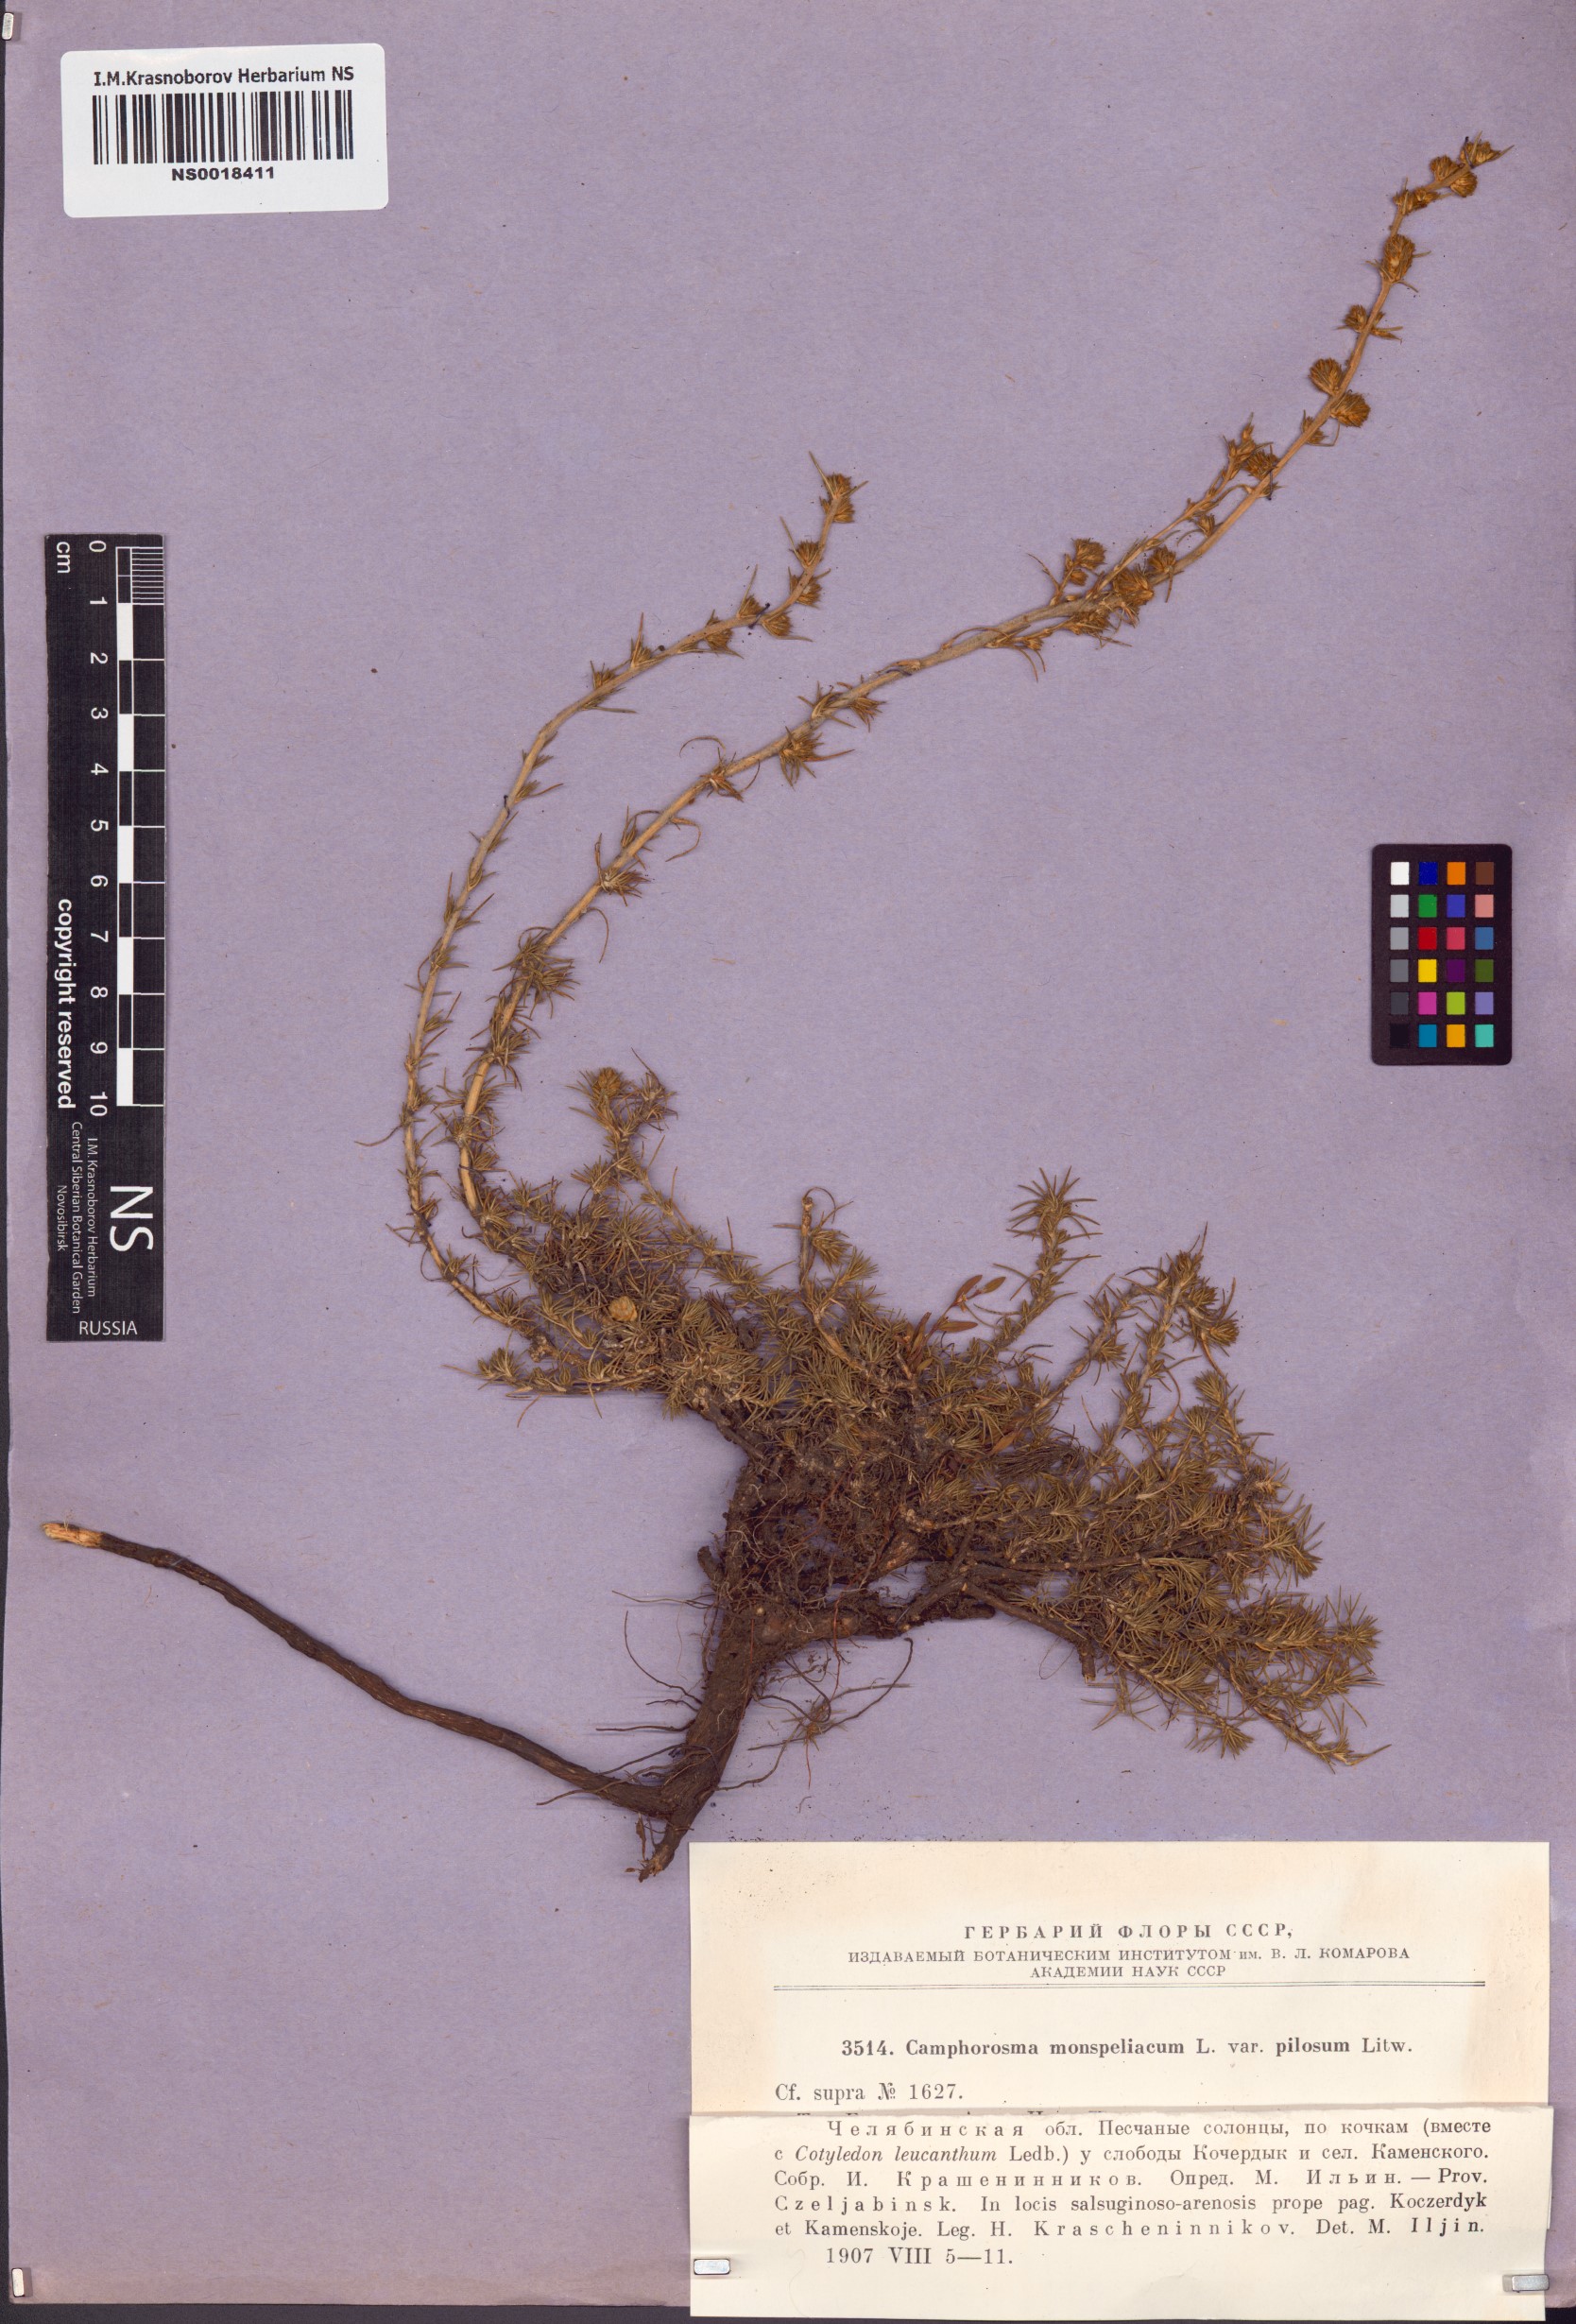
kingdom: Plantae
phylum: Tracheophyta
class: Magnoliopsida
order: Caryophyllales
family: Amaranthaceae
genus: Camphorosma
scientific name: Camphorosma monspeliaca
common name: Camphorfume
